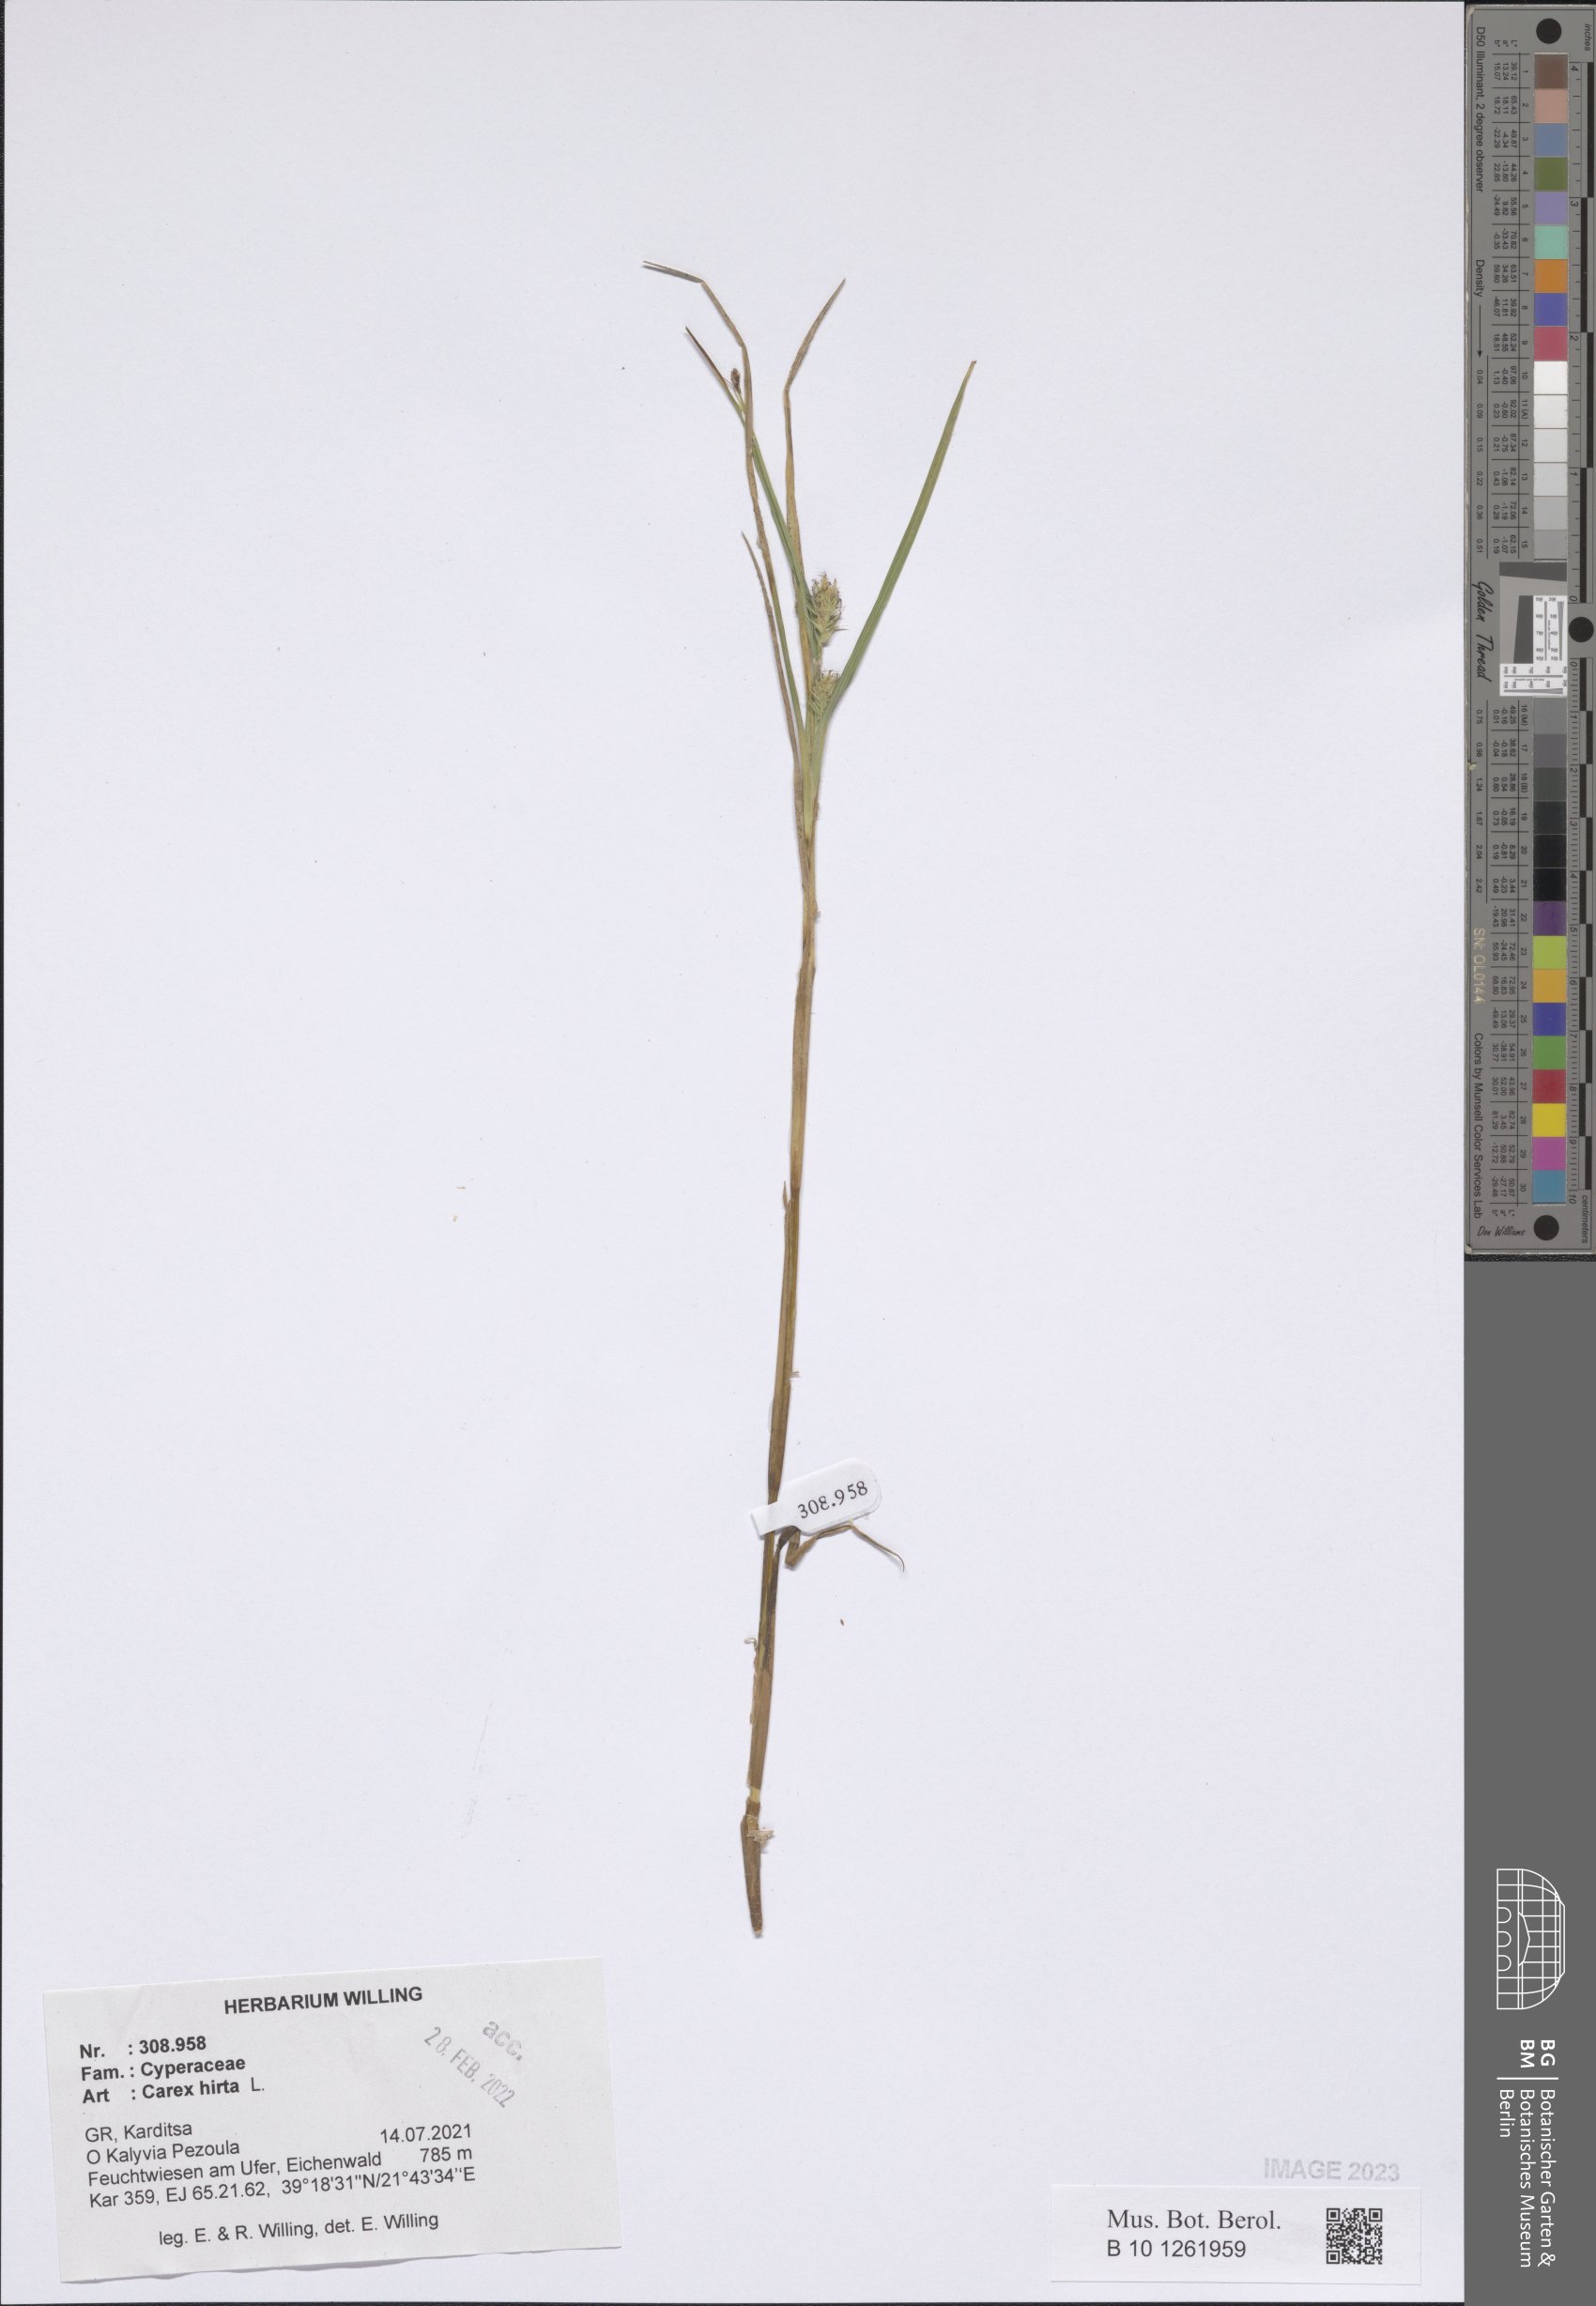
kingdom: Plantae
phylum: Tracheophyta
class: Liliopsida
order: Poales
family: Cyperaceae
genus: Carex
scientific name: Carex hirta
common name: Hairy sedge
